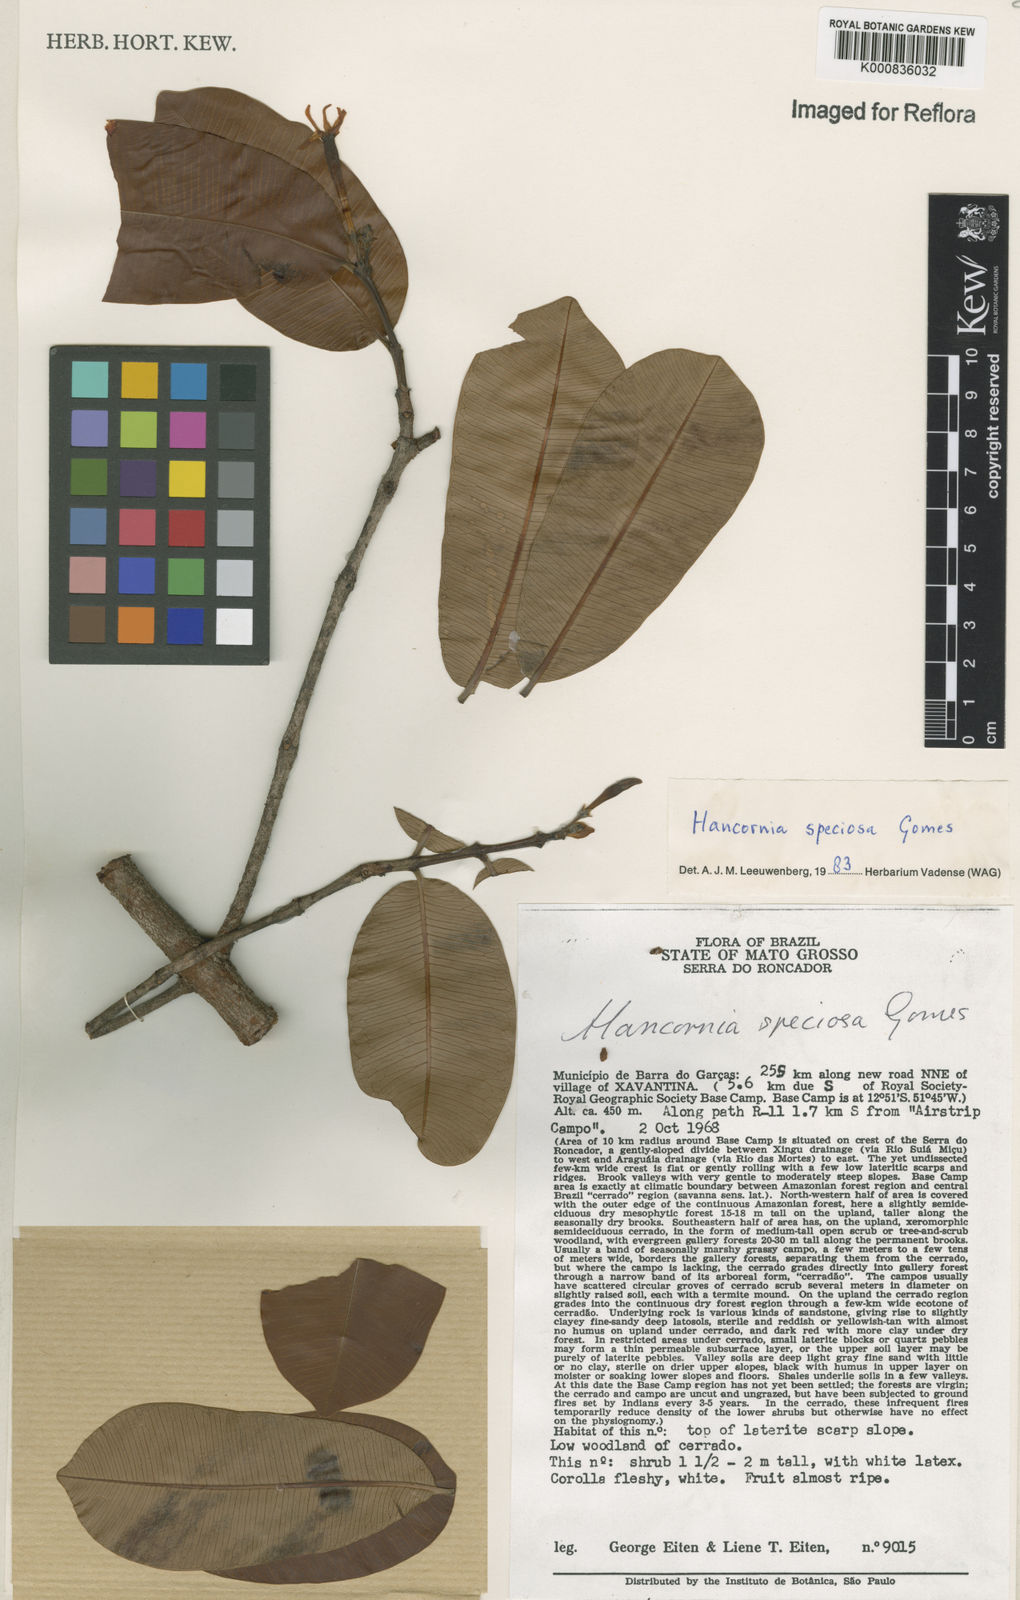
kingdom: Plantae
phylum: Tracheophyta
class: Magnoliopsida
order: Gentianales
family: Apocynaceae
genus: Hancornia
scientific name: Hancornia speciosa
